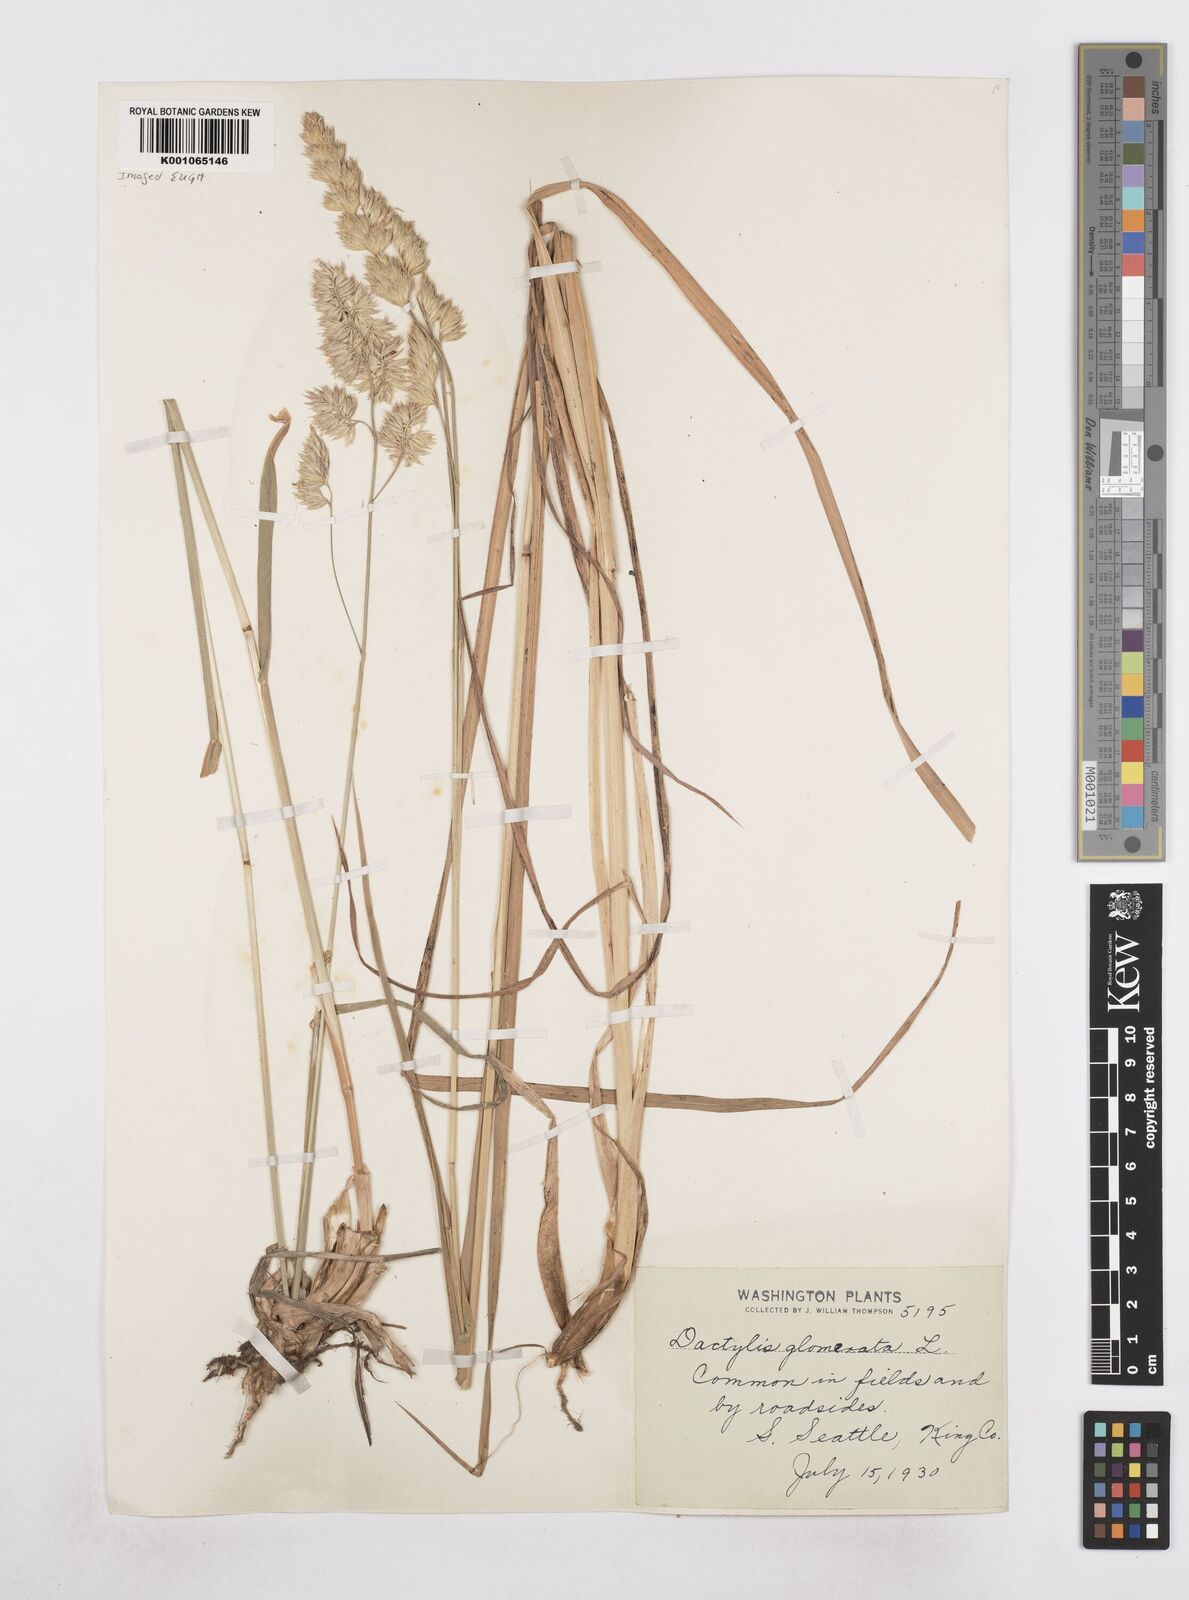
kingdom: Plantae
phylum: Tracheophyta
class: Liliopsida
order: Poales
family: Poaceae
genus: Dactylis
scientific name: Dactylis glomerata
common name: Orchardgrass
